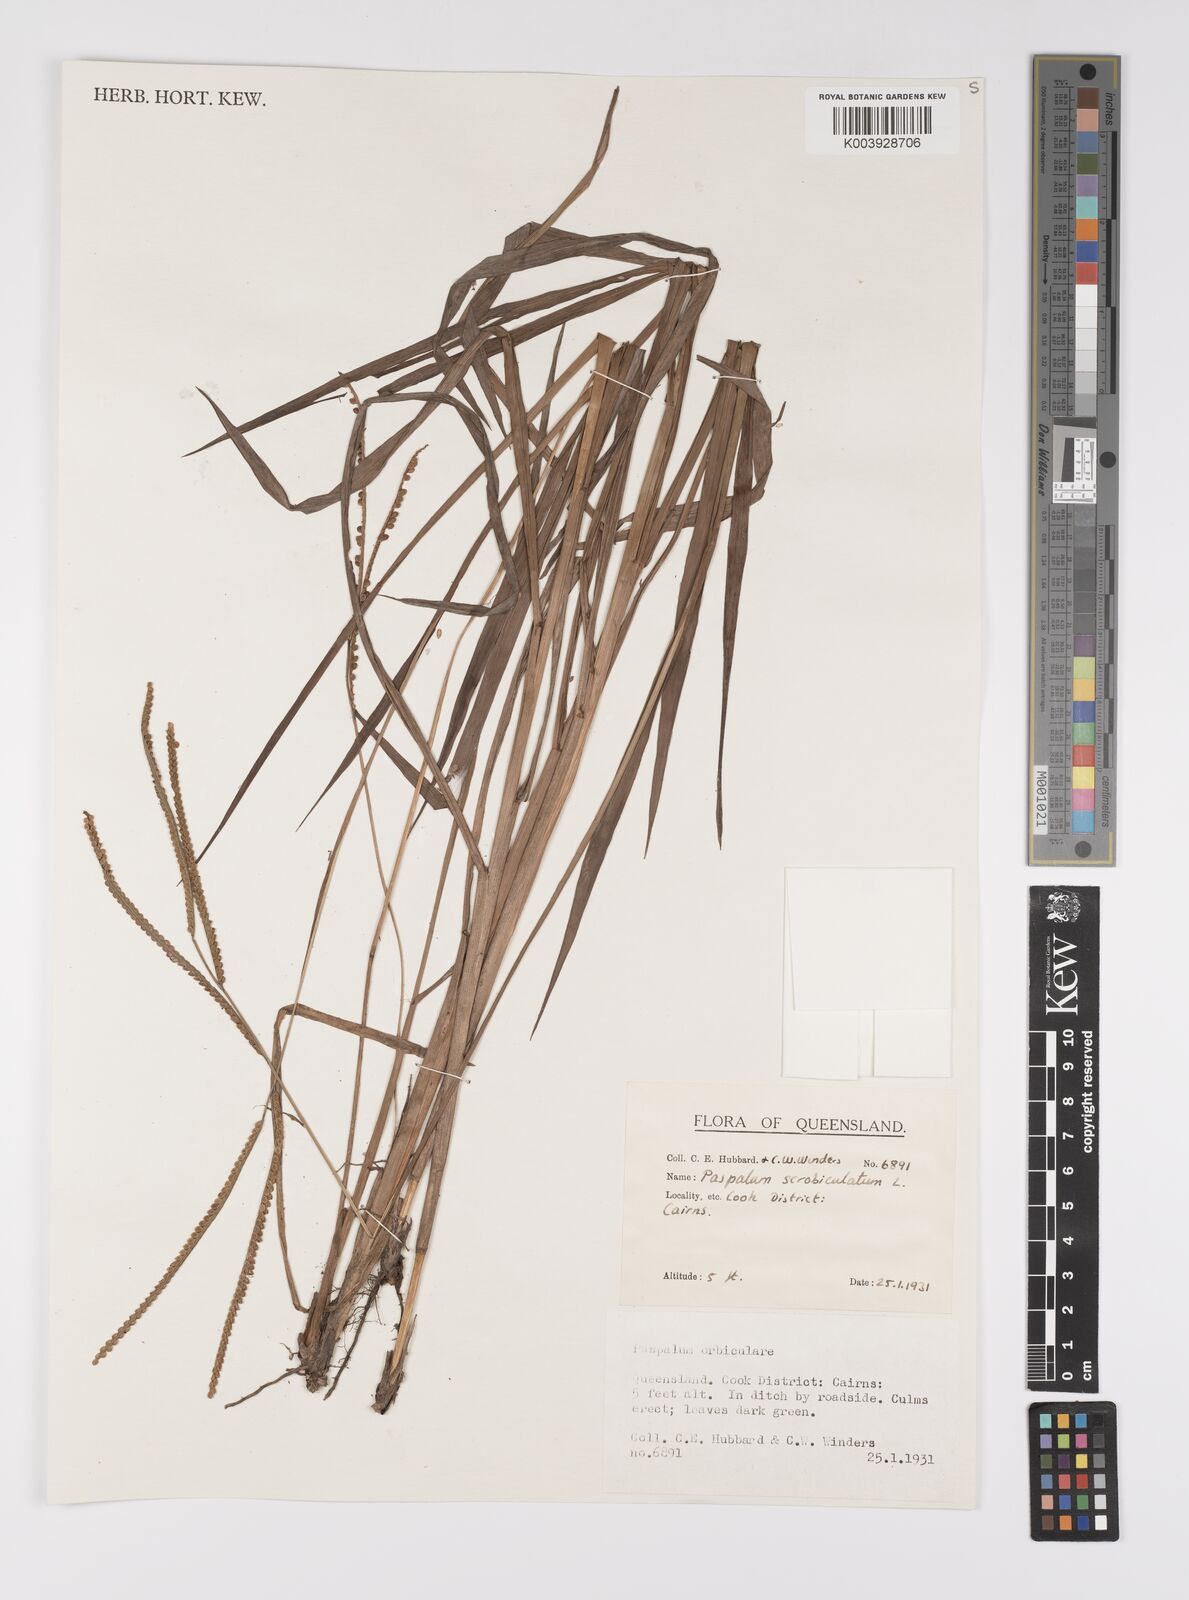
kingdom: Plantae
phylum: Tracheophyta
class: Liliopsida
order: Poales
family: Poaceae
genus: Paspalum
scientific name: Paspalum scrobiculatum
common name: Kodo millet
